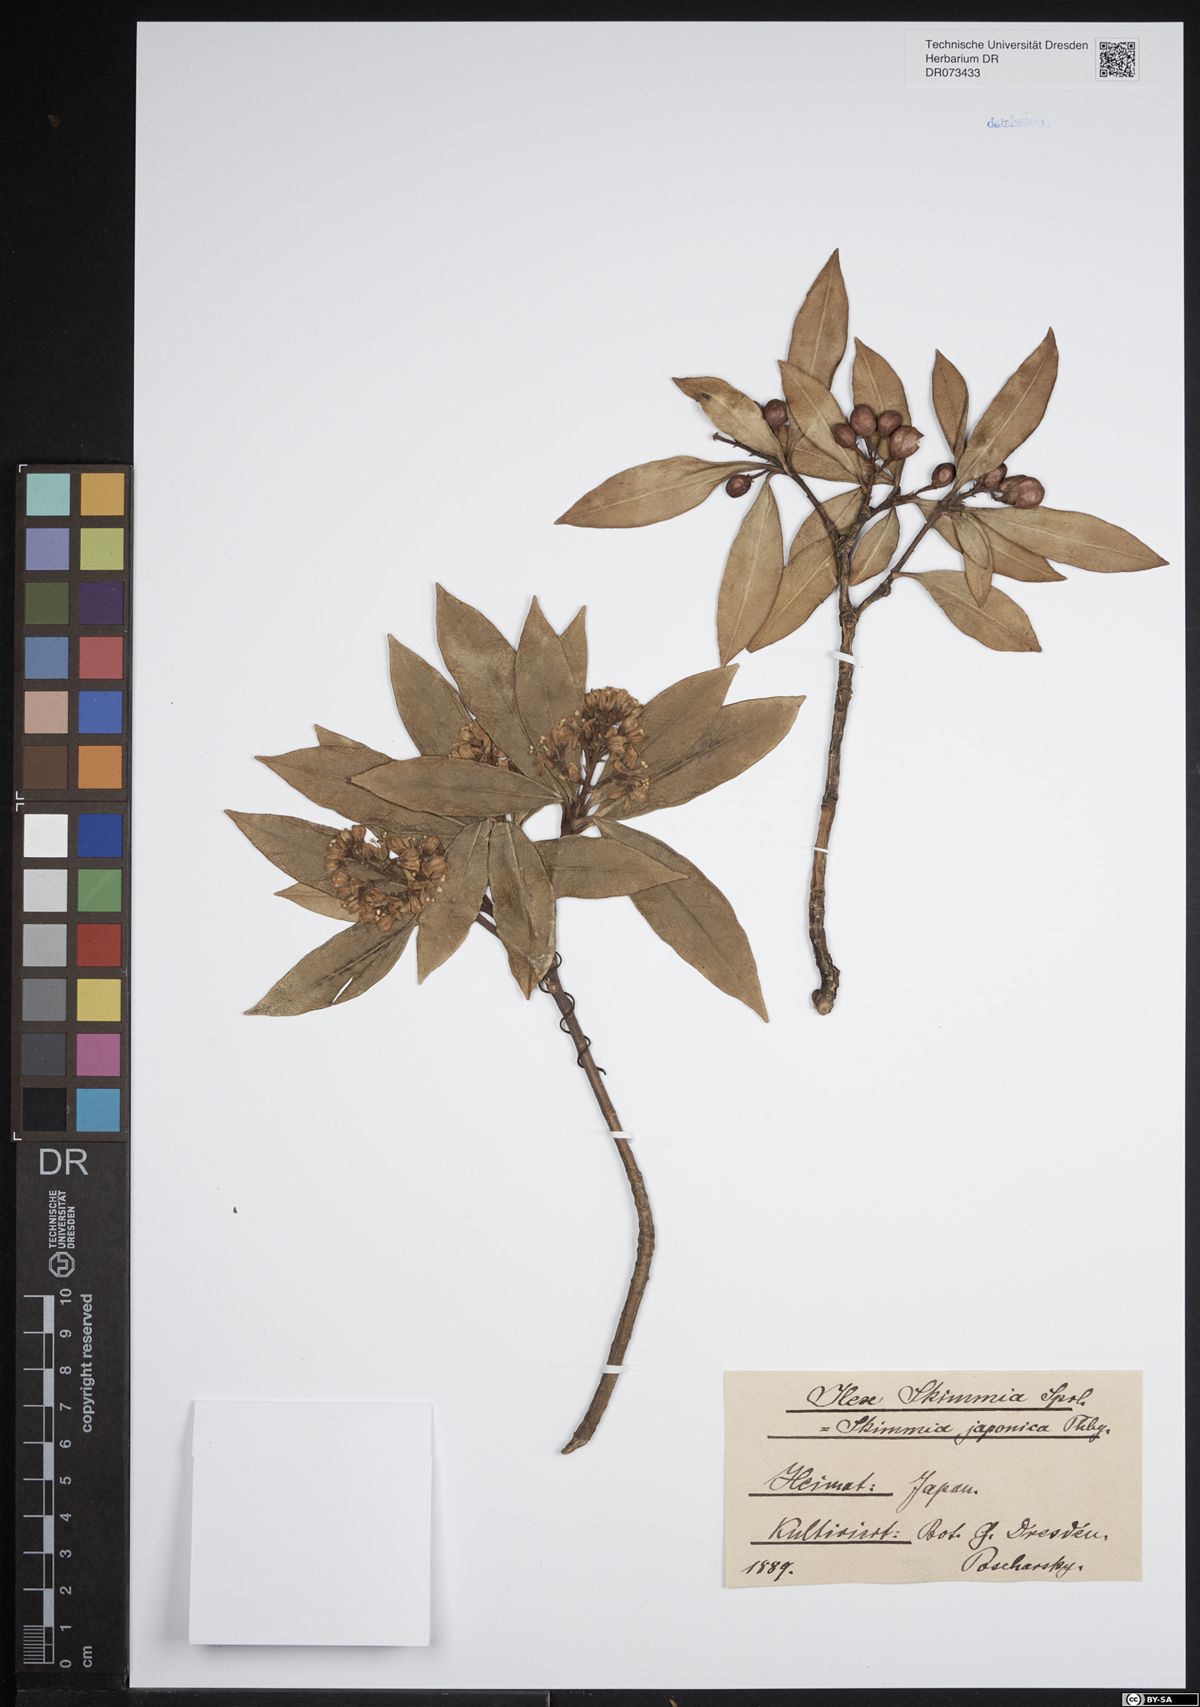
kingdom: Plantae
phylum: Tracheophyta
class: Magnoliopsida
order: Sapindales
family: Rutaceae
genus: Skimmia
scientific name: Skimmia japonica
